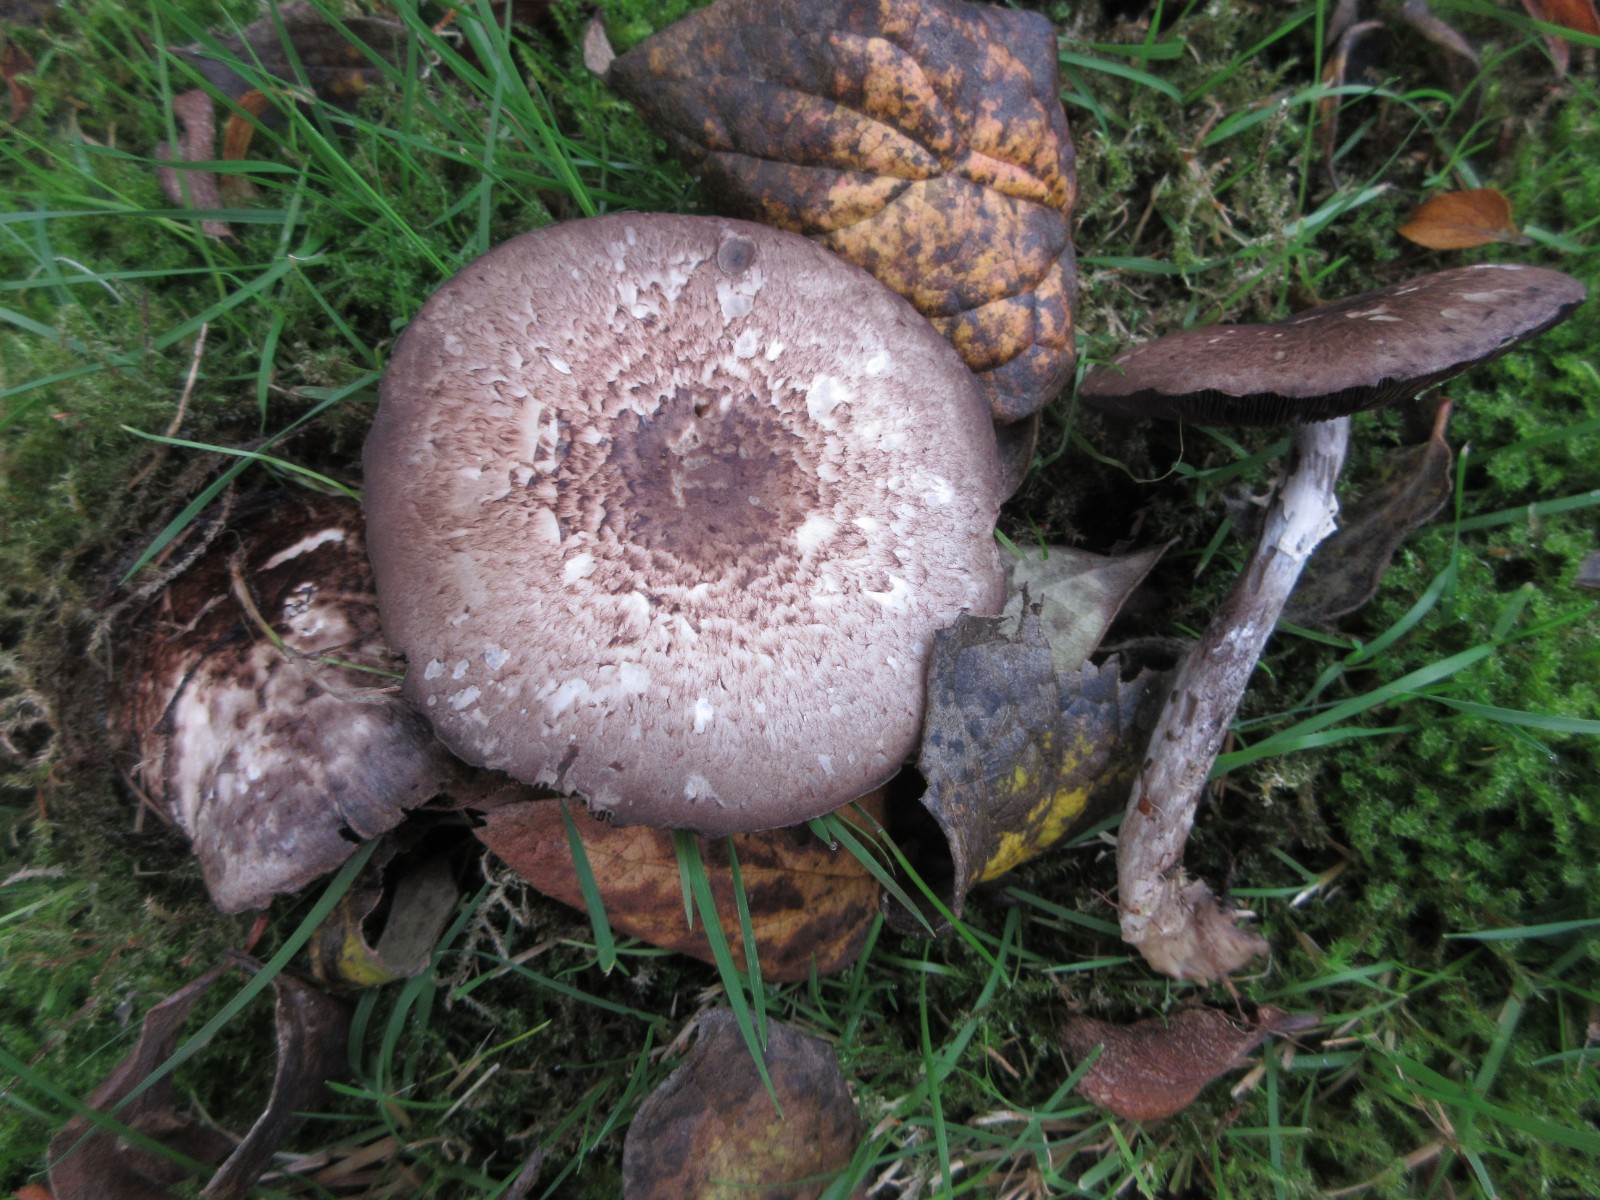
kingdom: Fungi
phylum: Basidiomycota
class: Agaricomycetes
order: Agaricales
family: Agaricaceae
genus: Agaricus
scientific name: Agaricus impudicus
